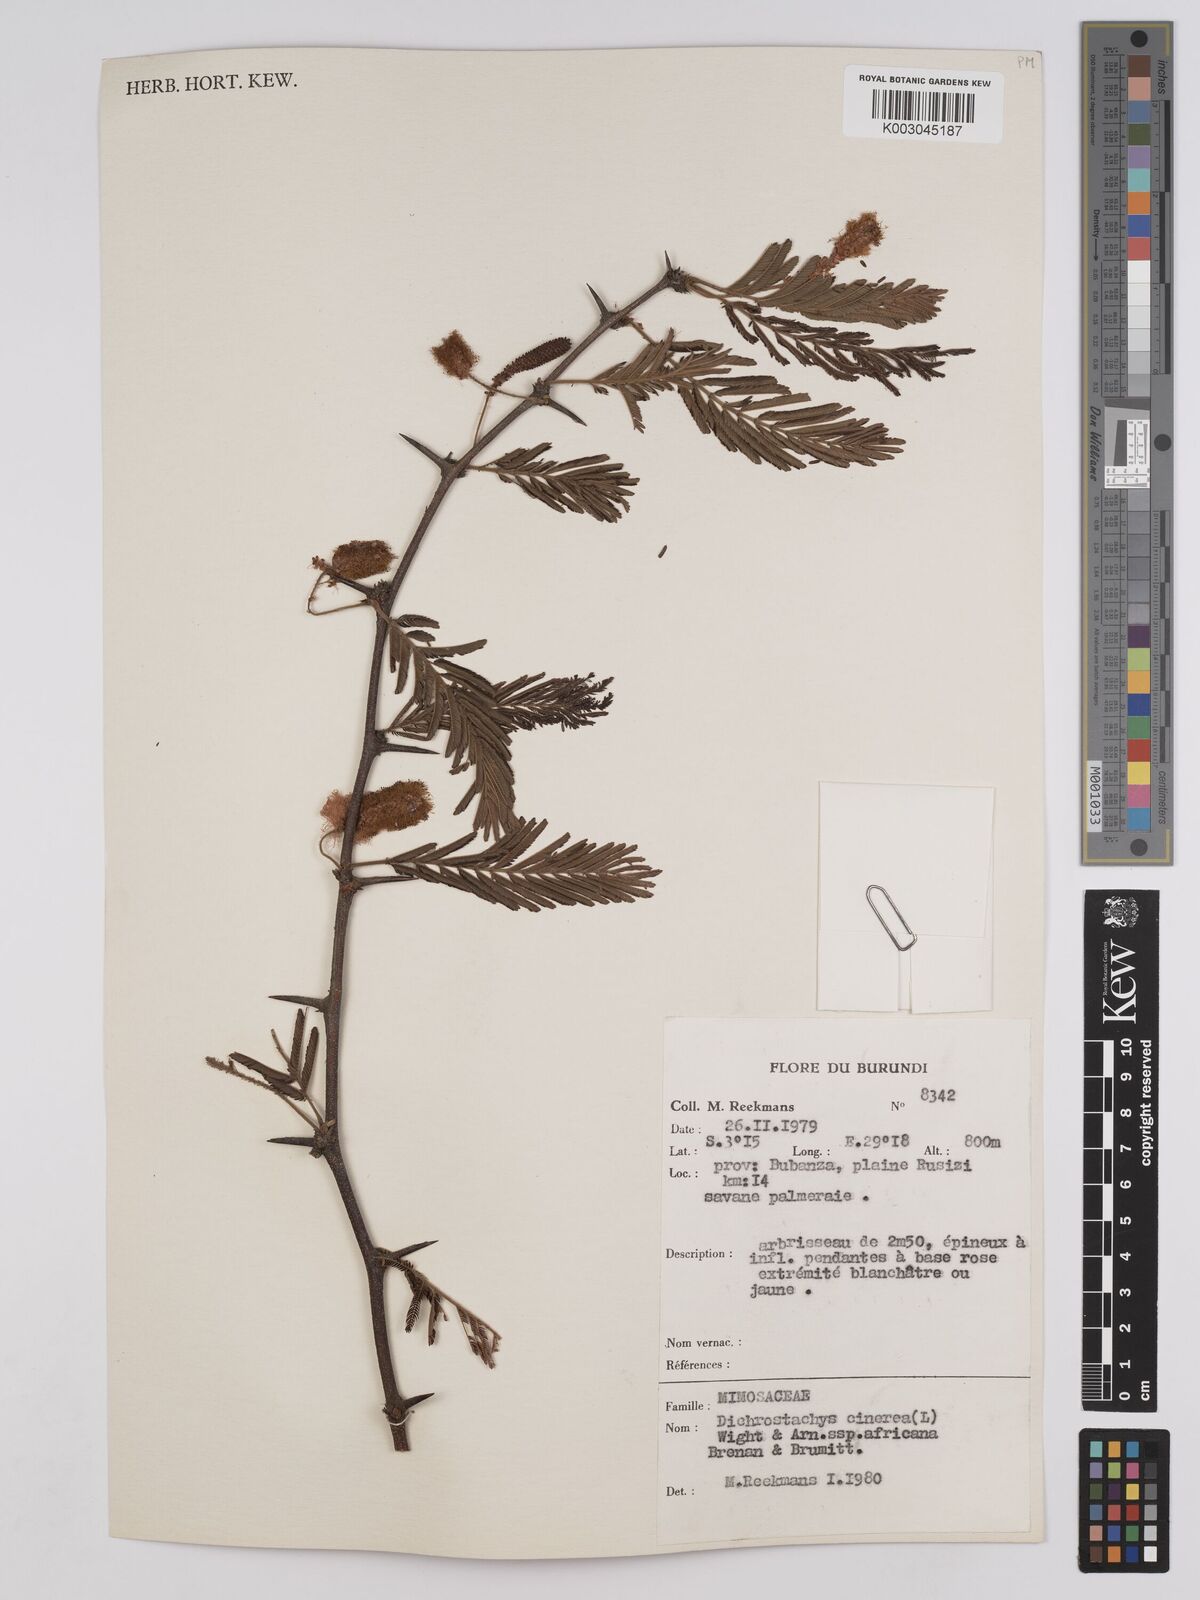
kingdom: Plantae
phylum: Tracheophyta
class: Magnoliopsida
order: Fabales
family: Fabaceae
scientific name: Fabaceae
